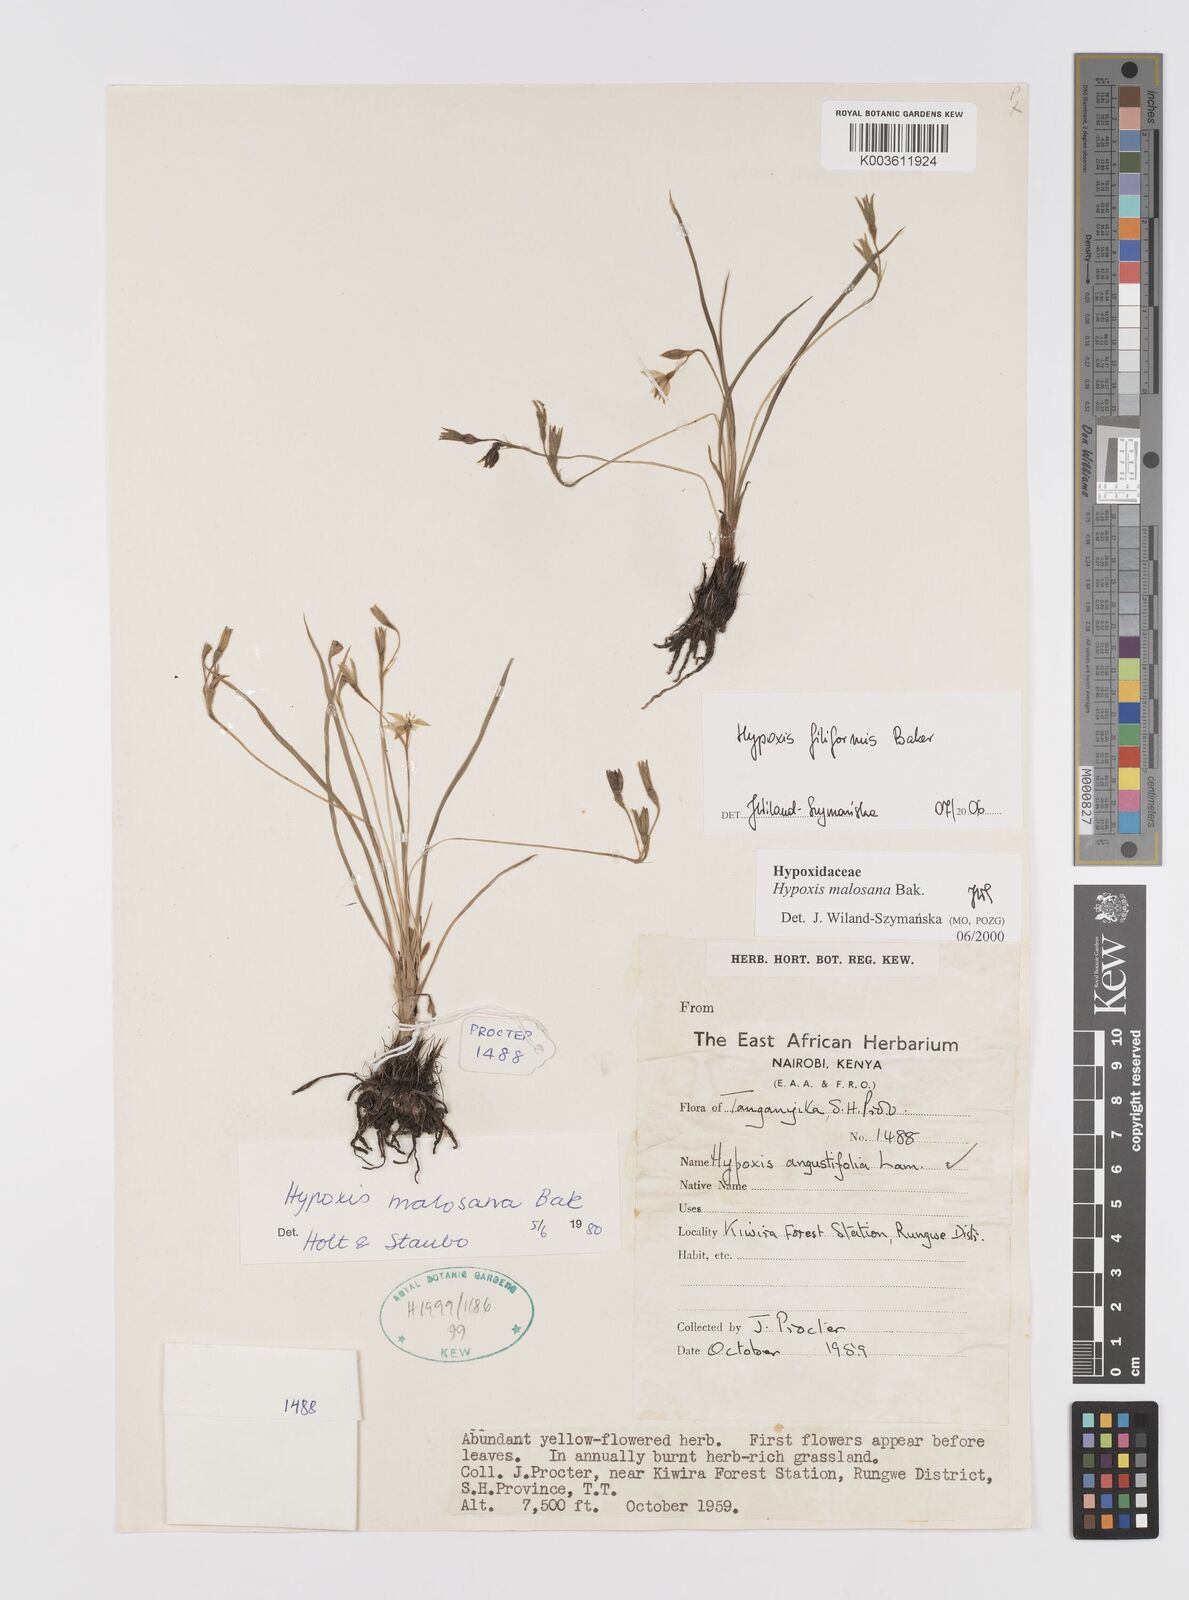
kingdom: Plantae
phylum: Tracheophyta
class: Liliopsida
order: Asparagales
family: Hypoxidaceae
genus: Hypoxis
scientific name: Hypoxis filiformis
